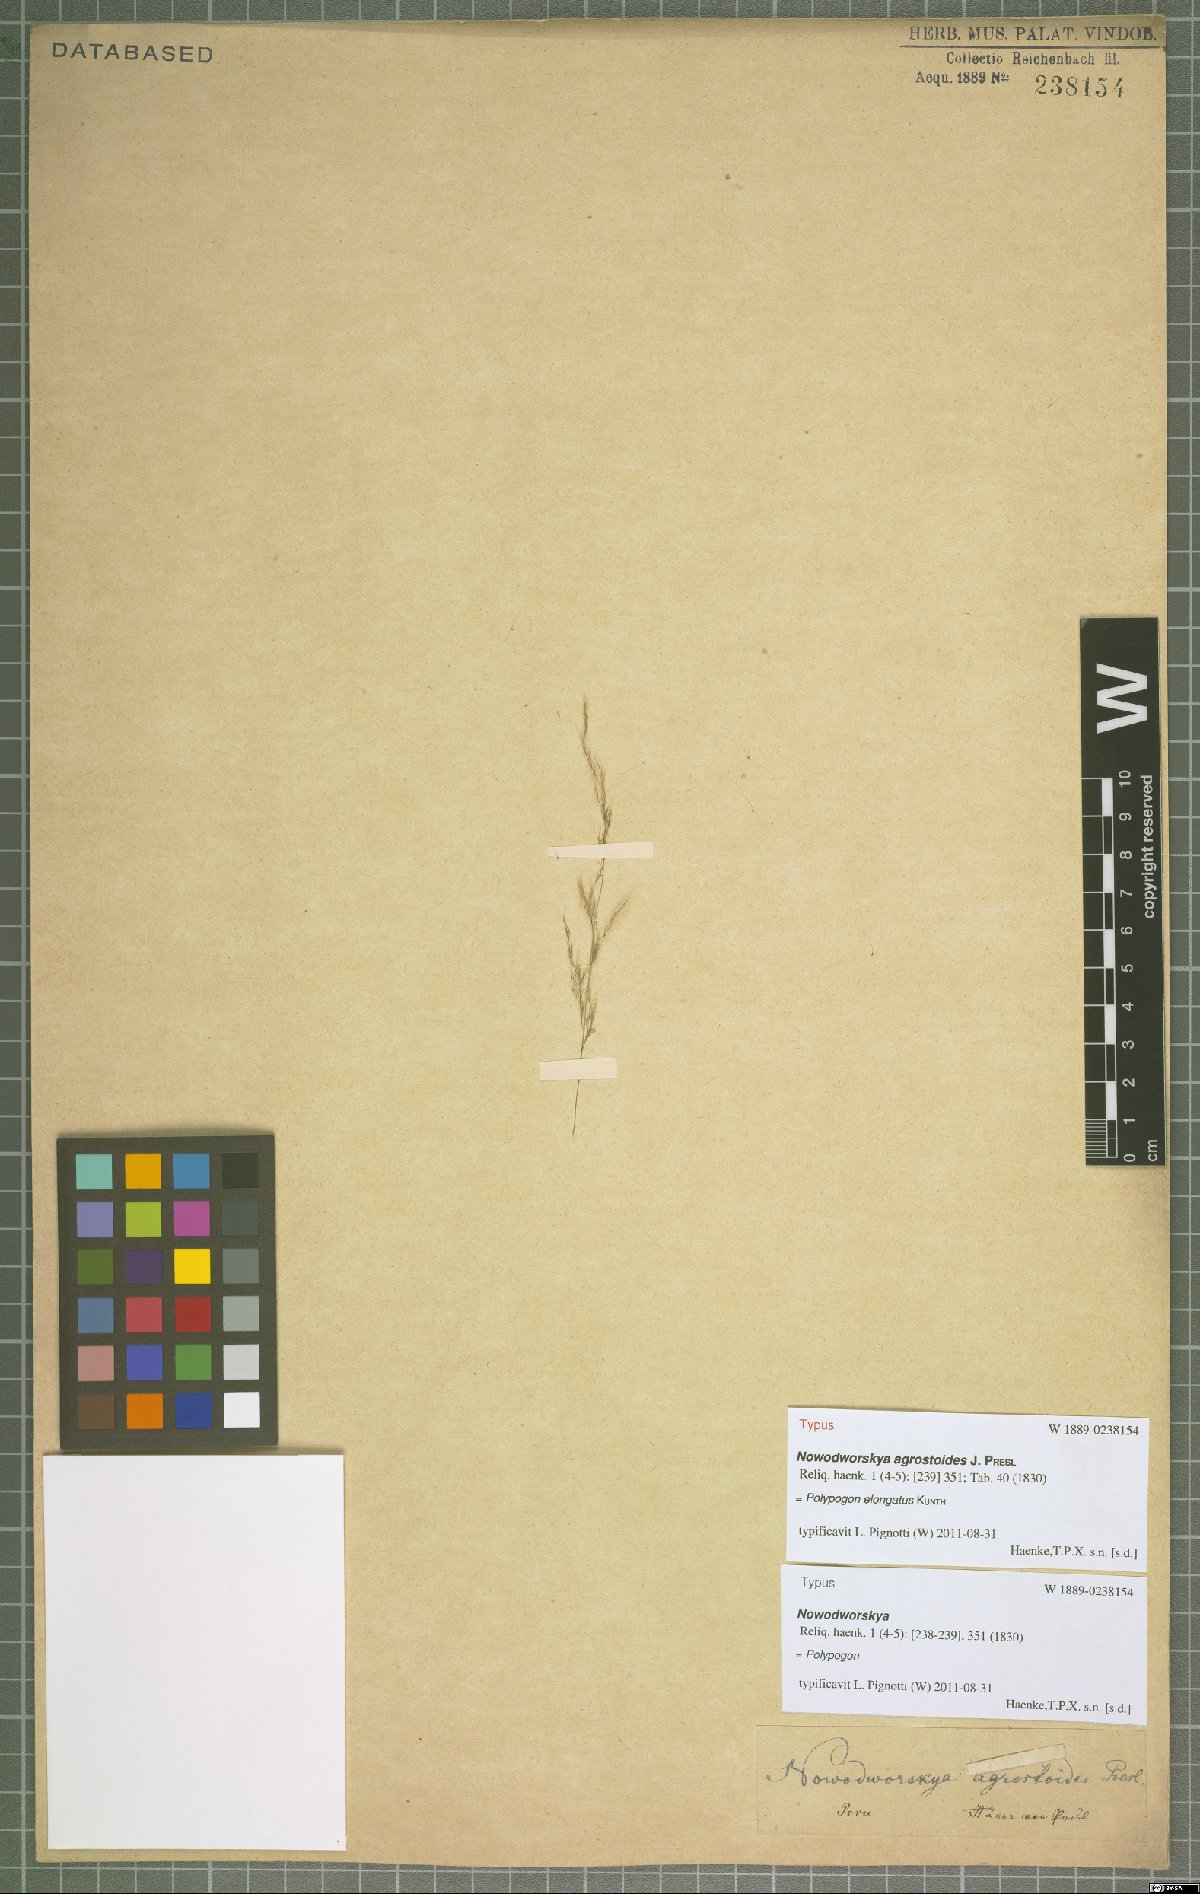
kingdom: Plantae
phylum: Tracheophyta
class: Liliopsida
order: Poales
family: Poaceae
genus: Polypogon
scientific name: Polypogon elongatus
